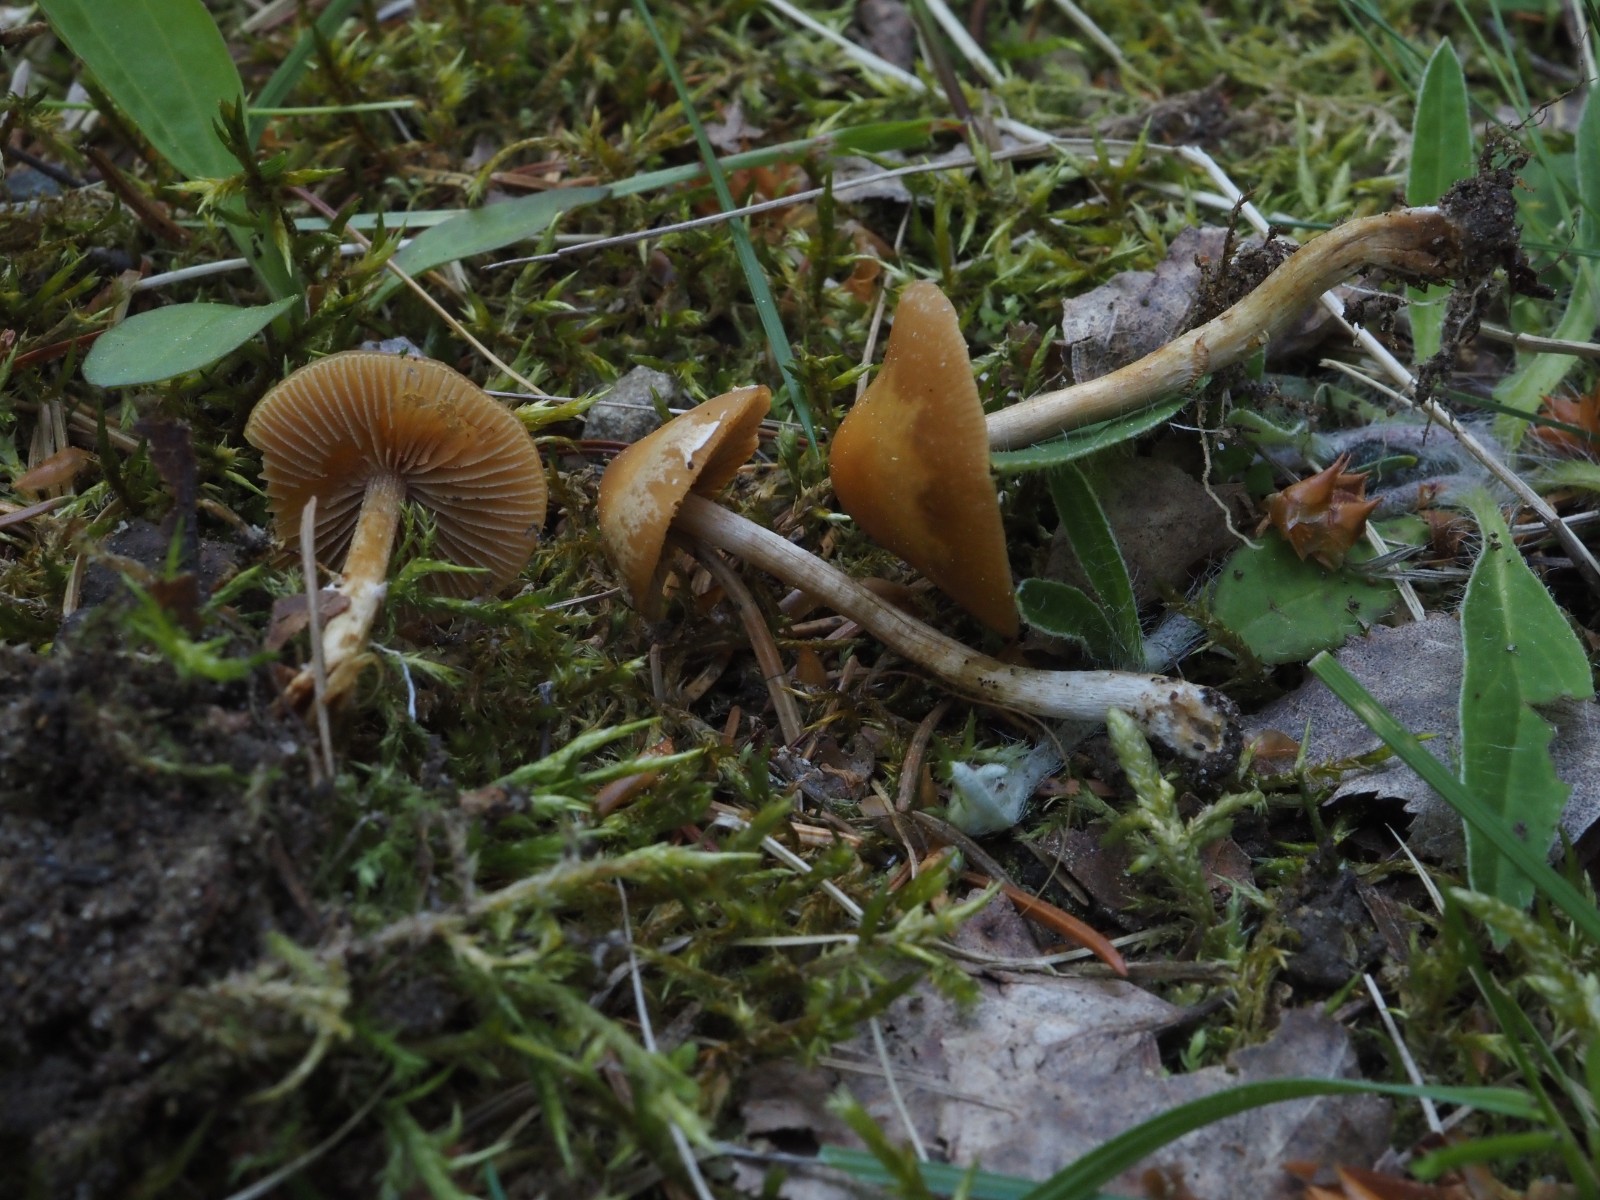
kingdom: Fungi
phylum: Basidiomycota
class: Agaricomycetes
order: Agaricales
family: Bolbitiaceae
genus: Conocybe
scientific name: Conocybe aporos
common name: tidlig dansehat
